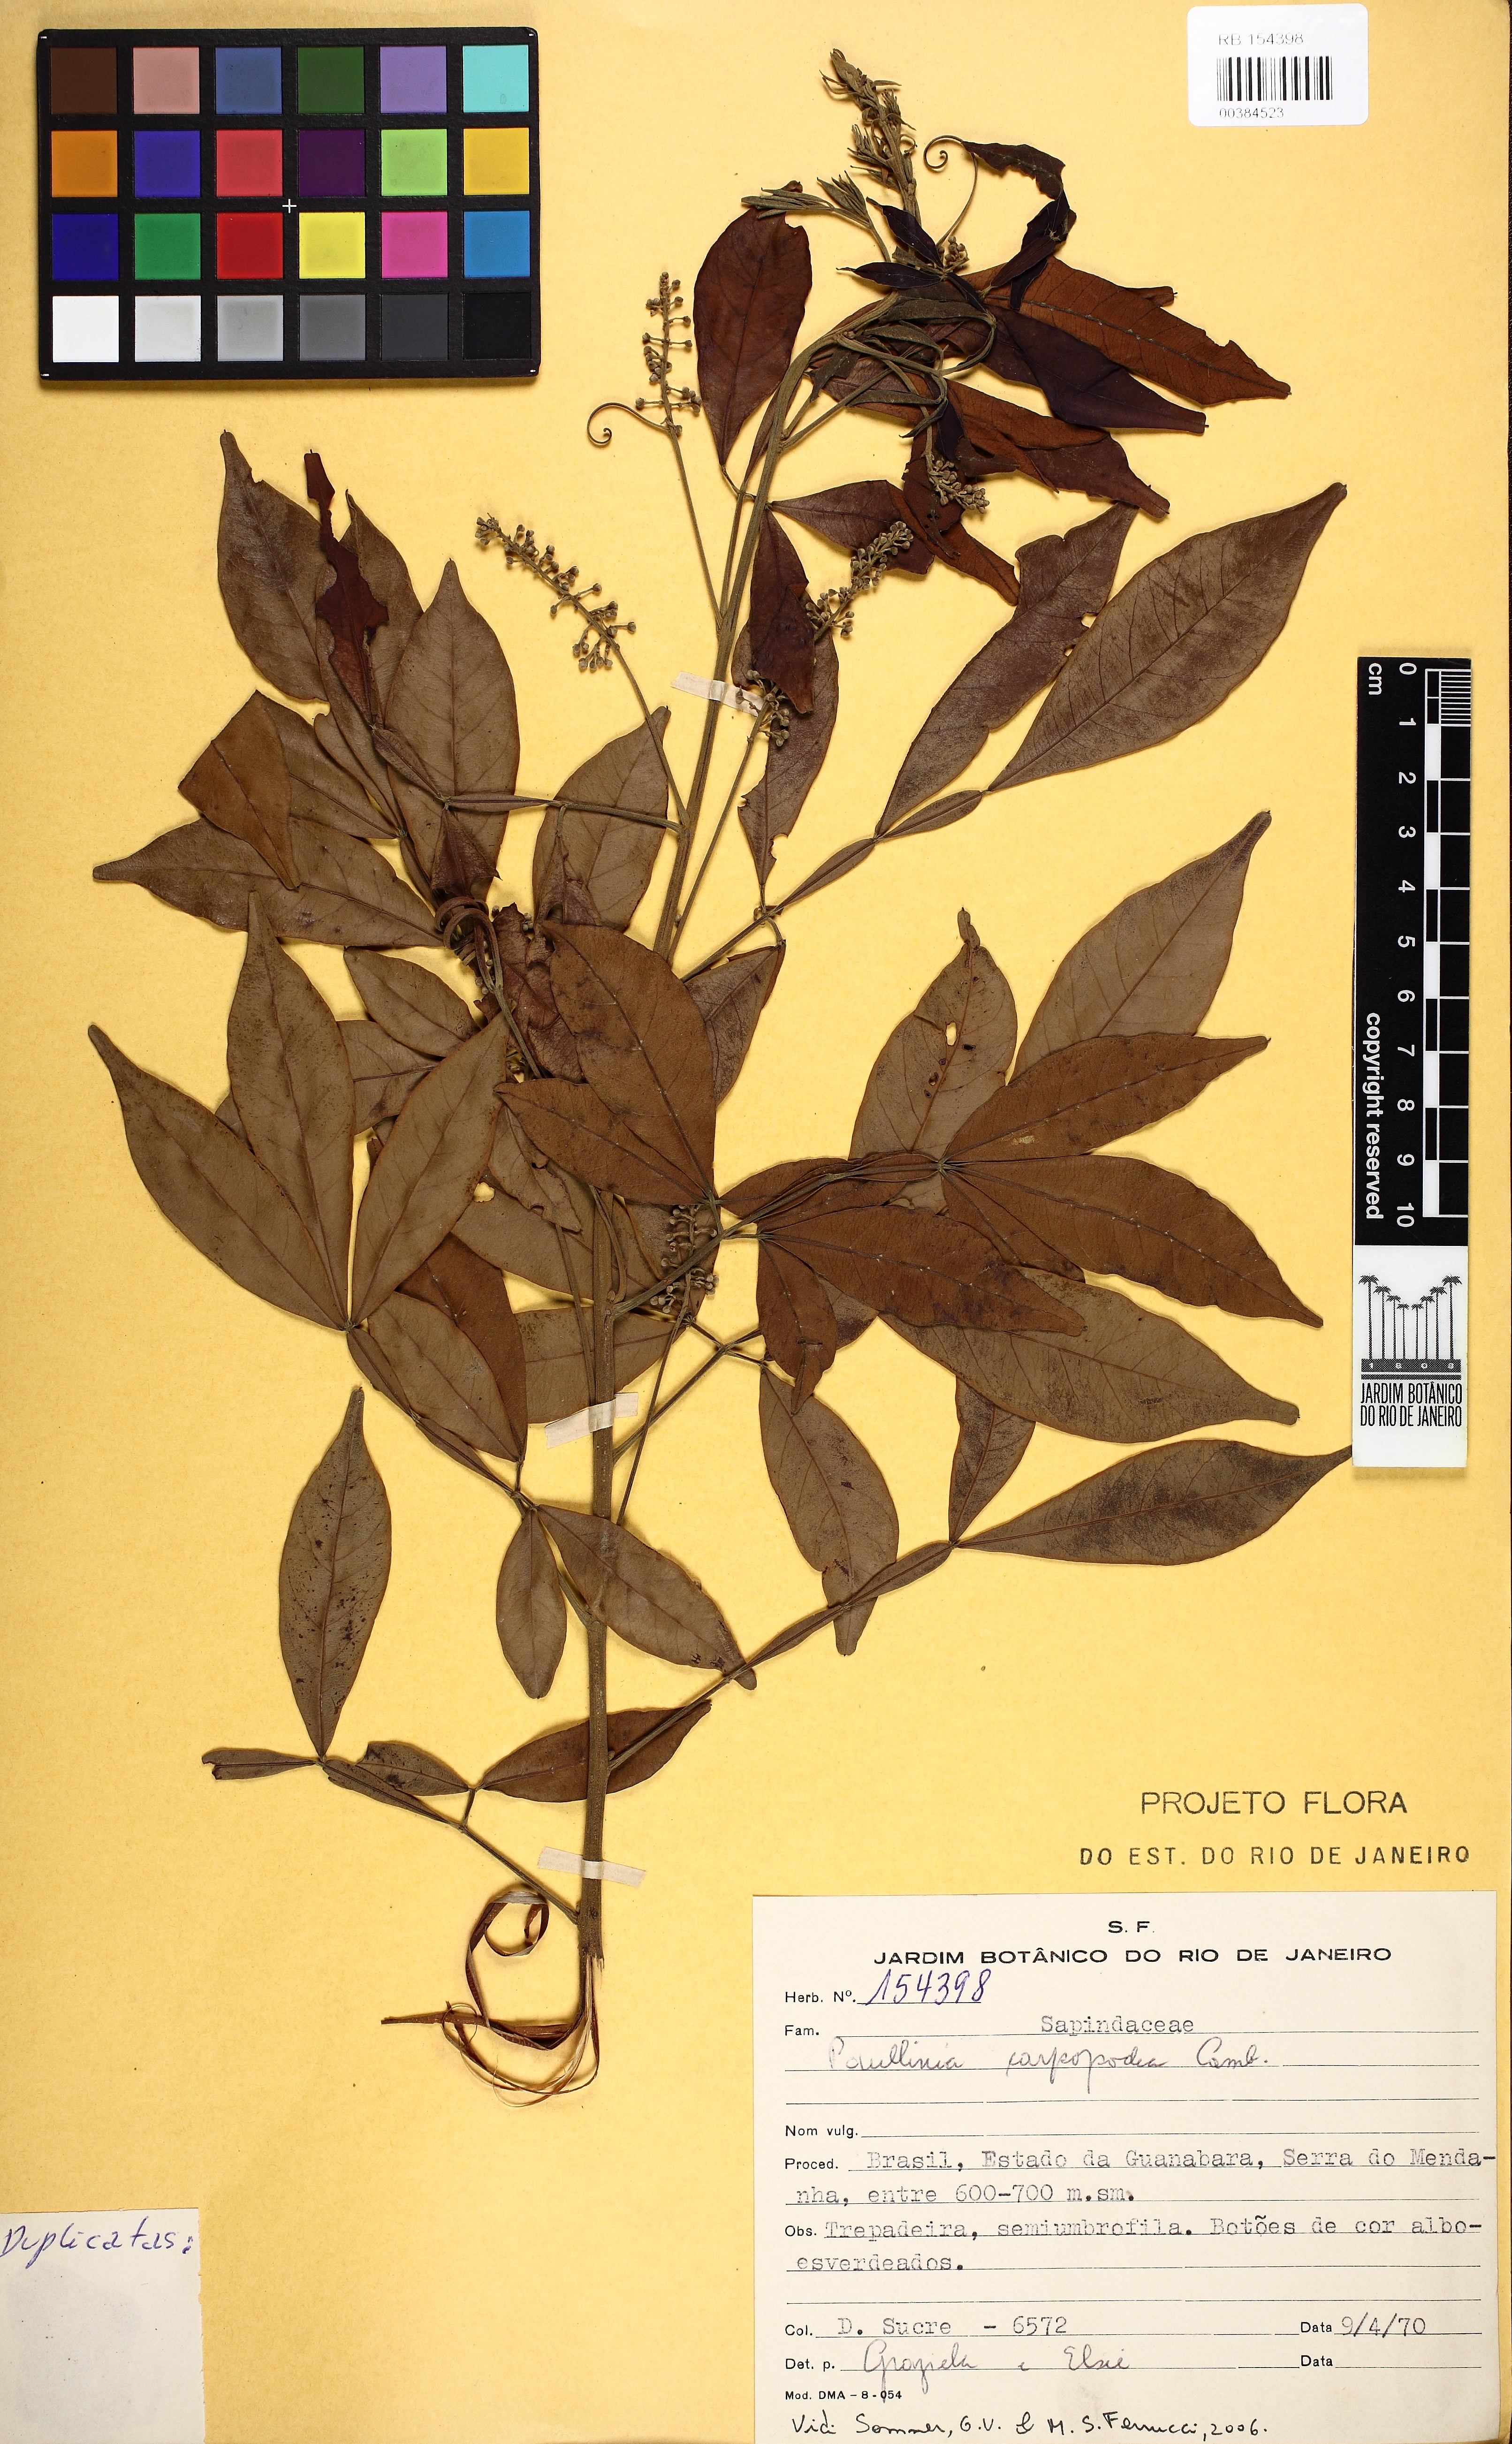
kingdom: Plantae
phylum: Tracheophyta
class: Magnoliopsida
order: Sapindales
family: Sapindaceae
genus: Paullinia
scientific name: Paullinia carpopodea
